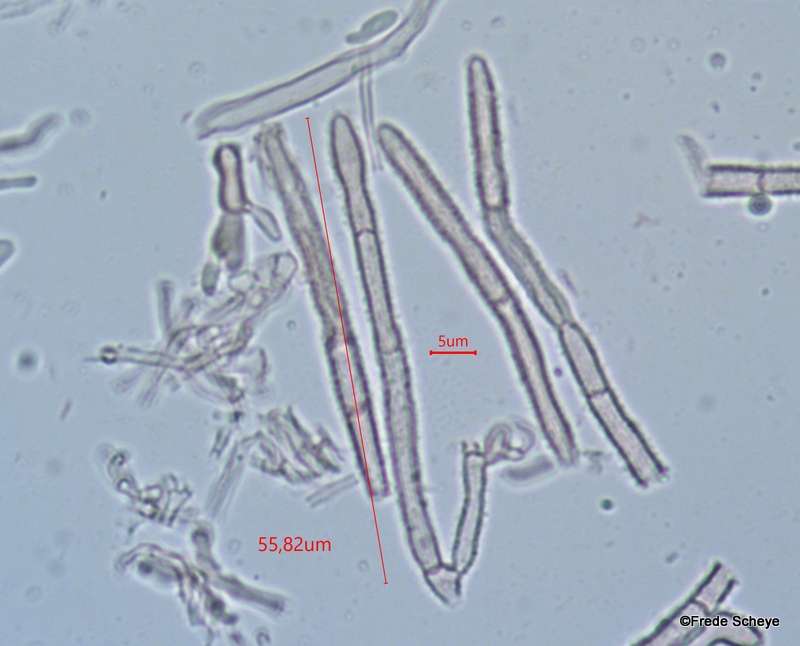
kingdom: Fungi
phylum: Ascomycota
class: Leotiomycetes
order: Helotiales
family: Lachnaceae
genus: Lachnum
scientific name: Lachnum impudicum
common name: vinter-frynseskive
